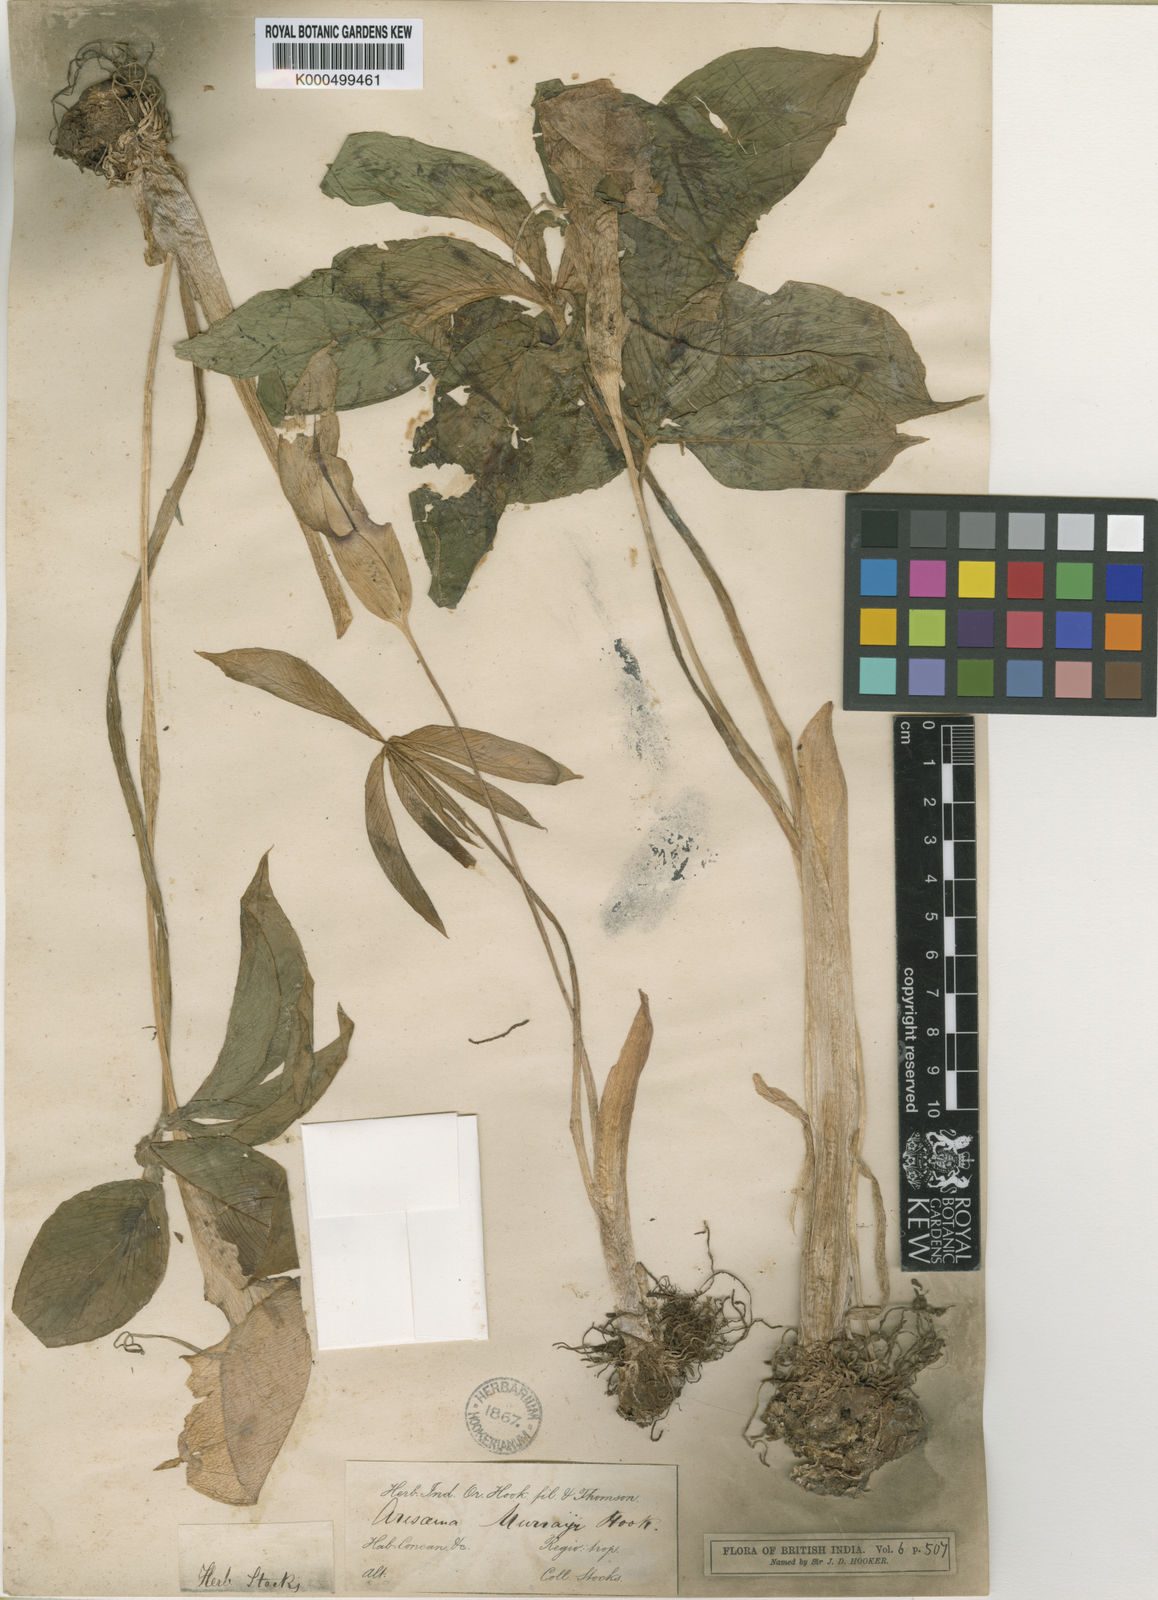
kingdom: Plantae
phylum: Tracheophyta
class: Liliopsida
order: Alismatales
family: Araceae
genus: Arisaema
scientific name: Arisaema murrayi
